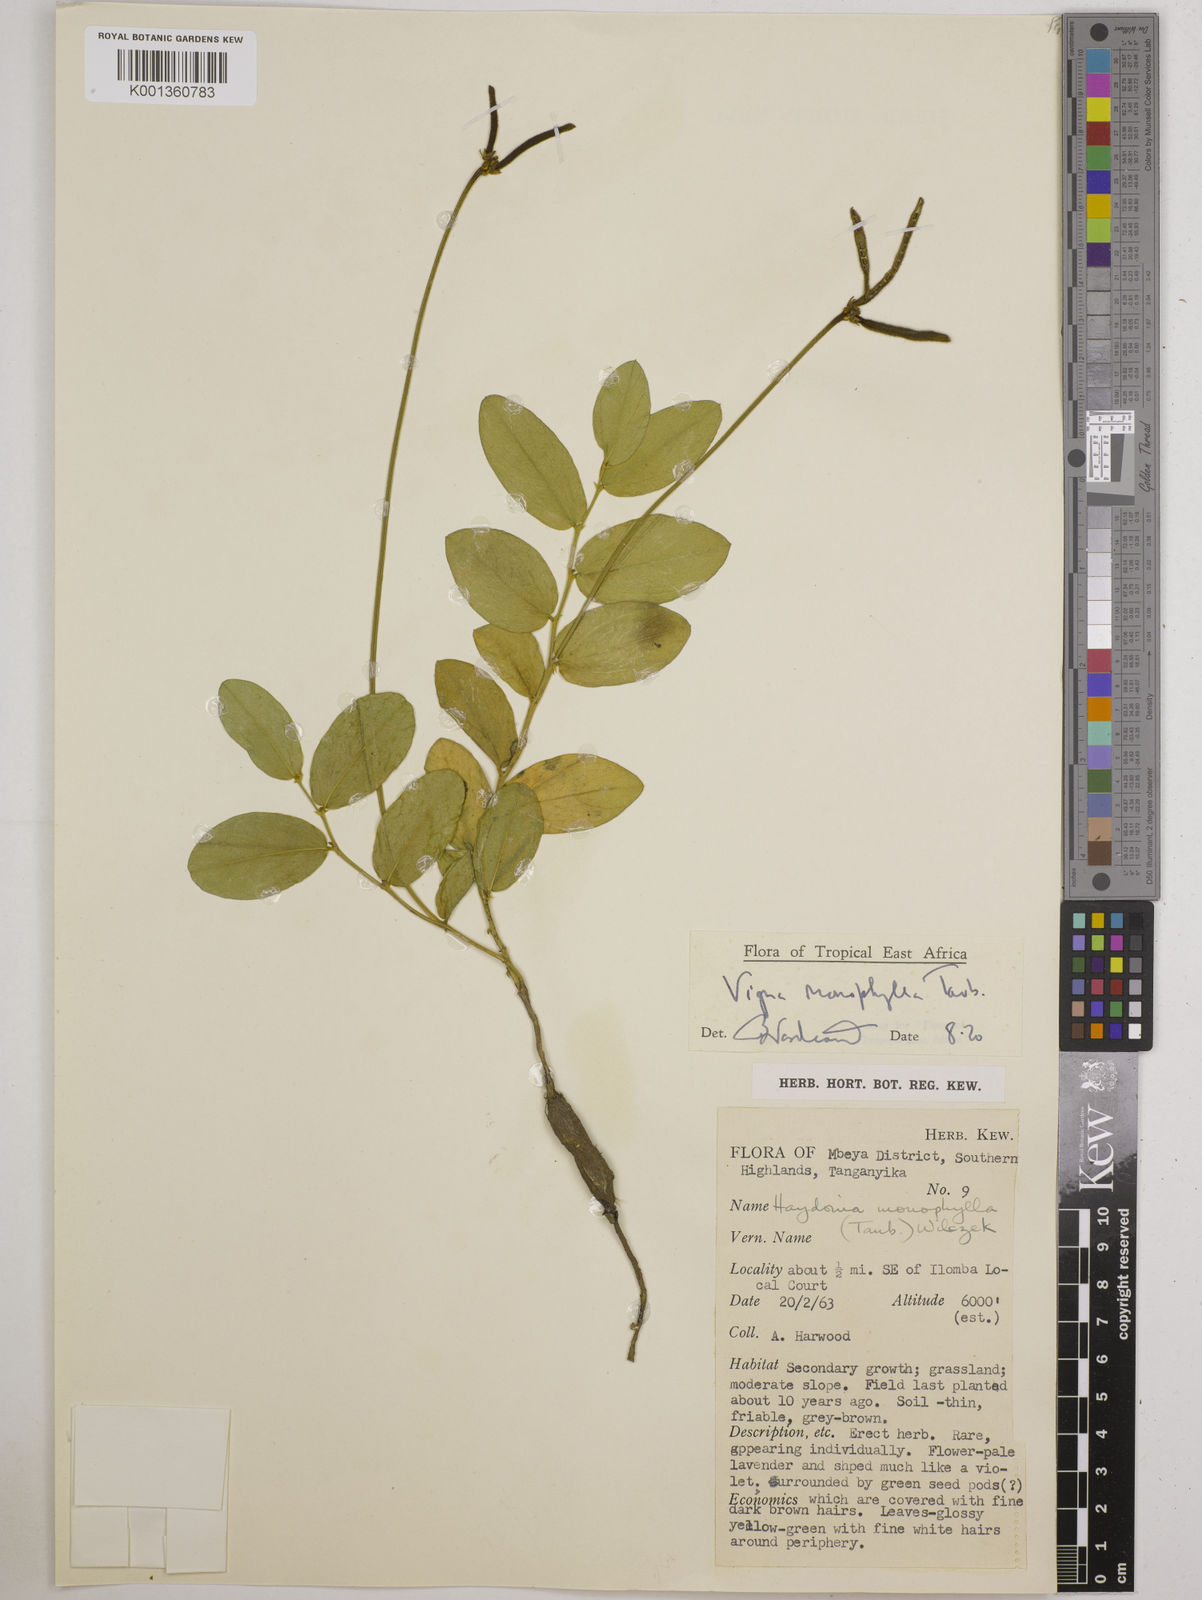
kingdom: Plantae
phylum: Tracheophyta
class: Magnoliopsida
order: Fabales
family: Fabaceae
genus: Vigna
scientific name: Vigna monophylla
